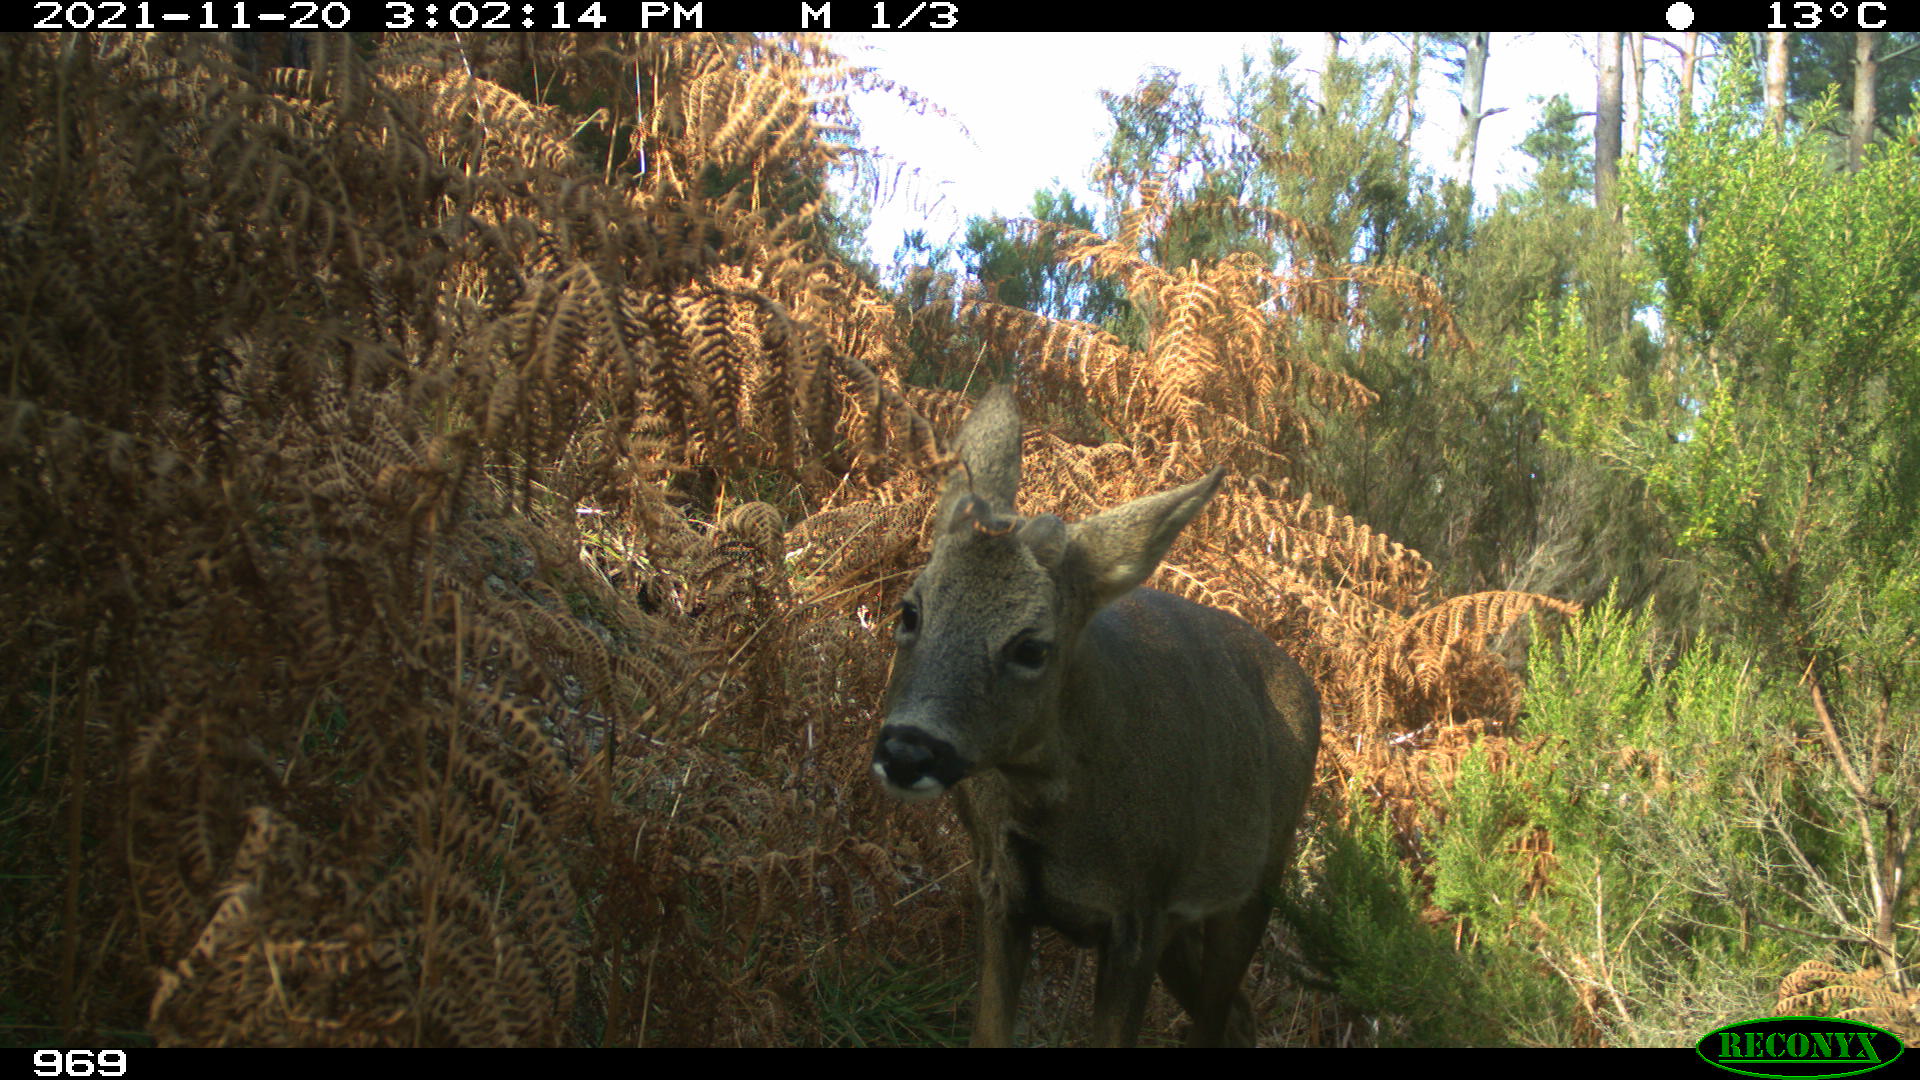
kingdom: Animalia
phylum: Chordata
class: Mammalia
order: Artiodactyla
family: Cervidae
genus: Cervus
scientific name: Cervus elaphus
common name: Red deer
